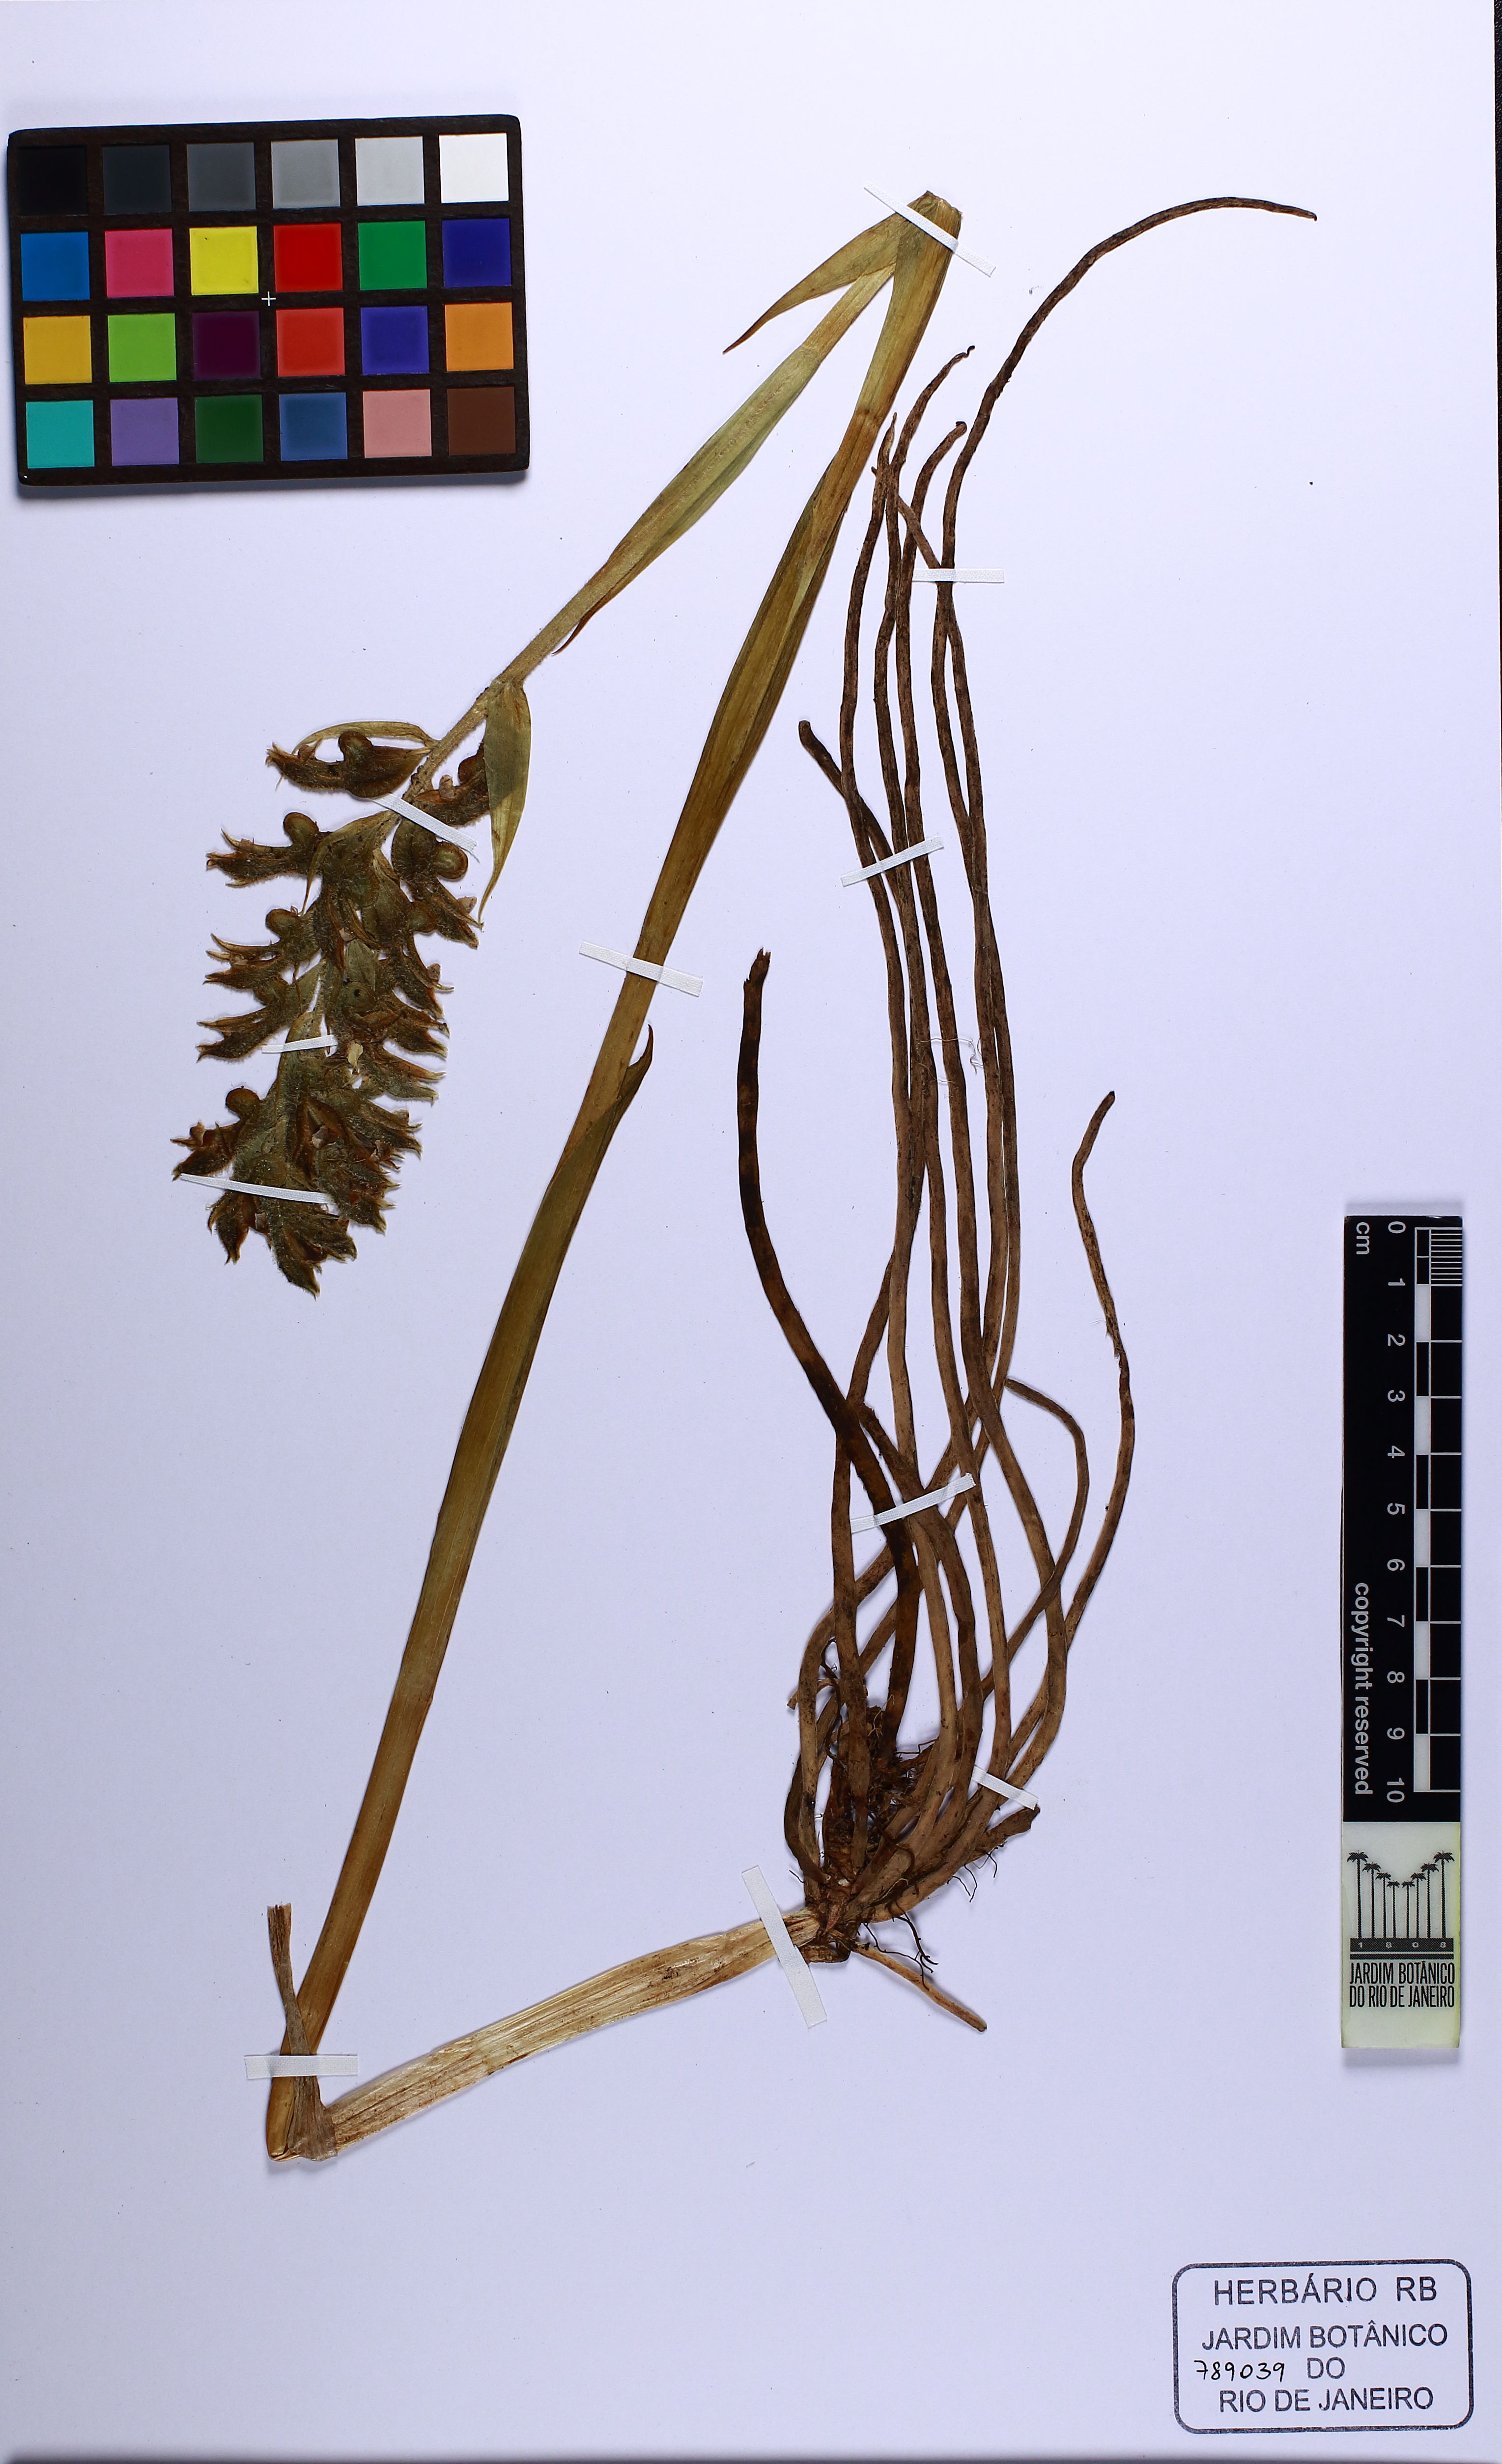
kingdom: Plantae
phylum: Tracheophyta
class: Liliopsida
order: Asparagales
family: Orchidaceae
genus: Pelexia
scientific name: Pelexia pterygantha
